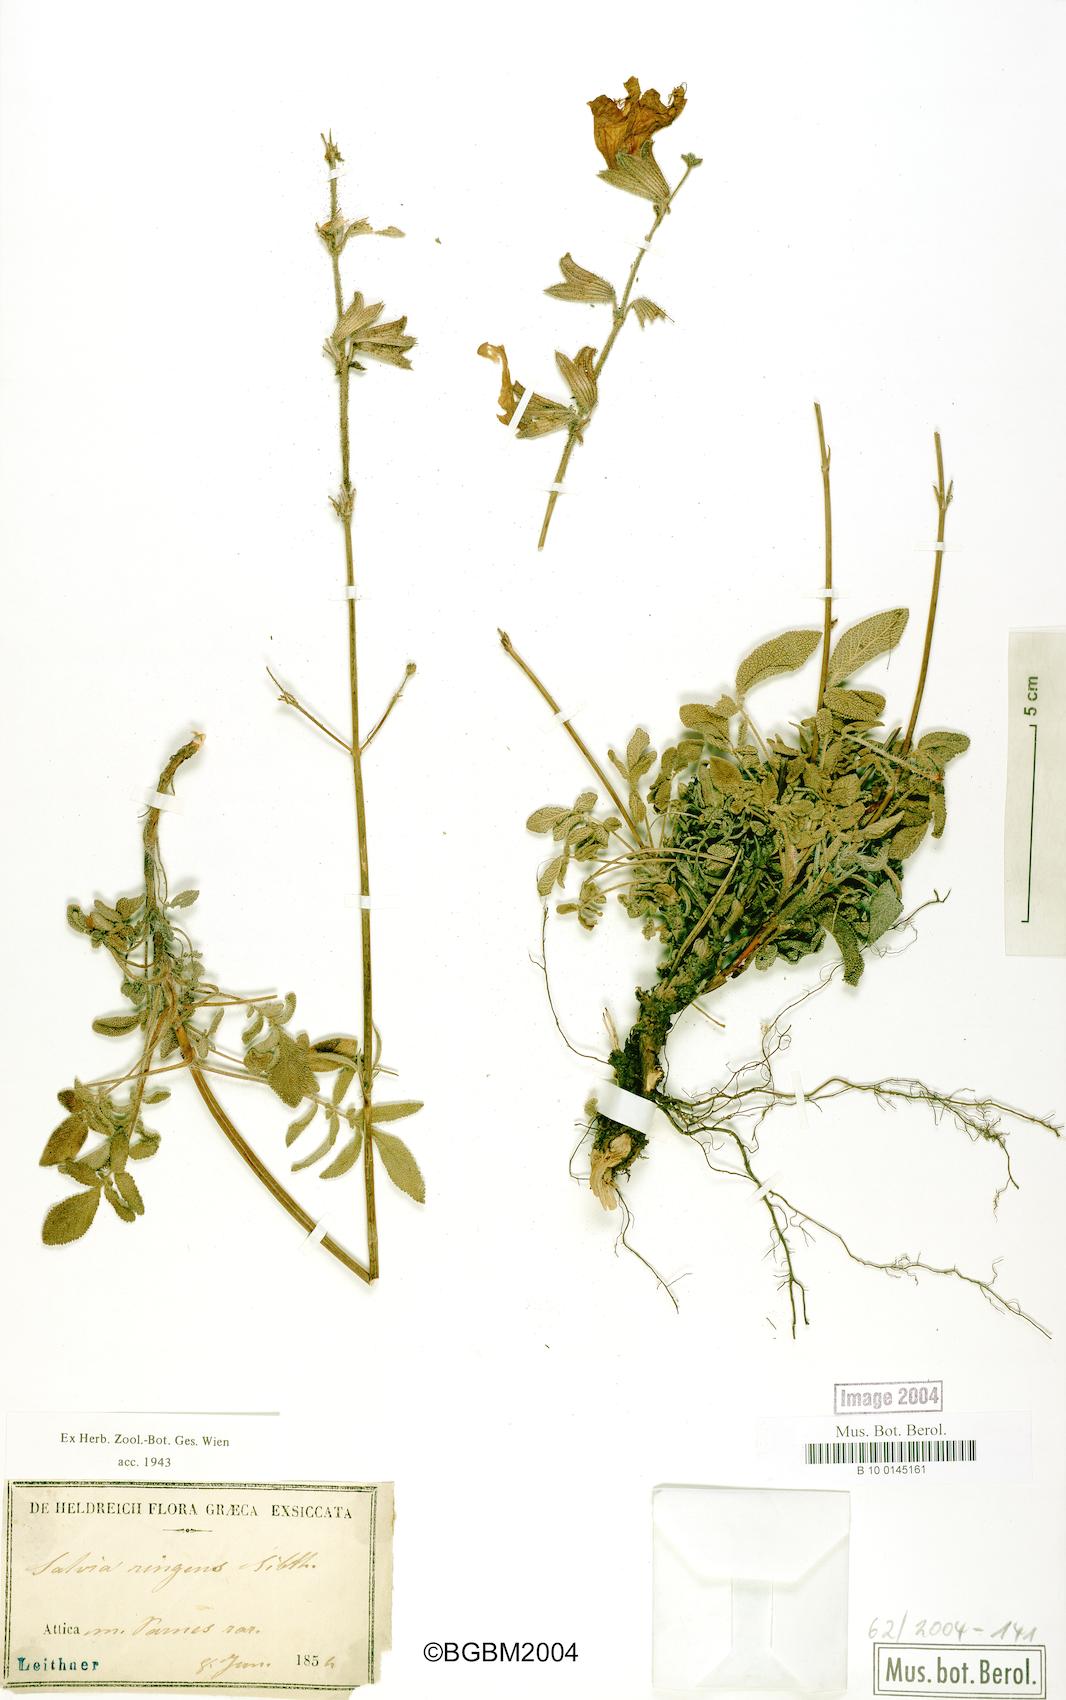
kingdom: Plantae
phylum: Tracheophyta
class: Magnoliopsida
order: Lamiales
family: Lamiaceae
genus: Salvia
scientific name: Salvia ringens
